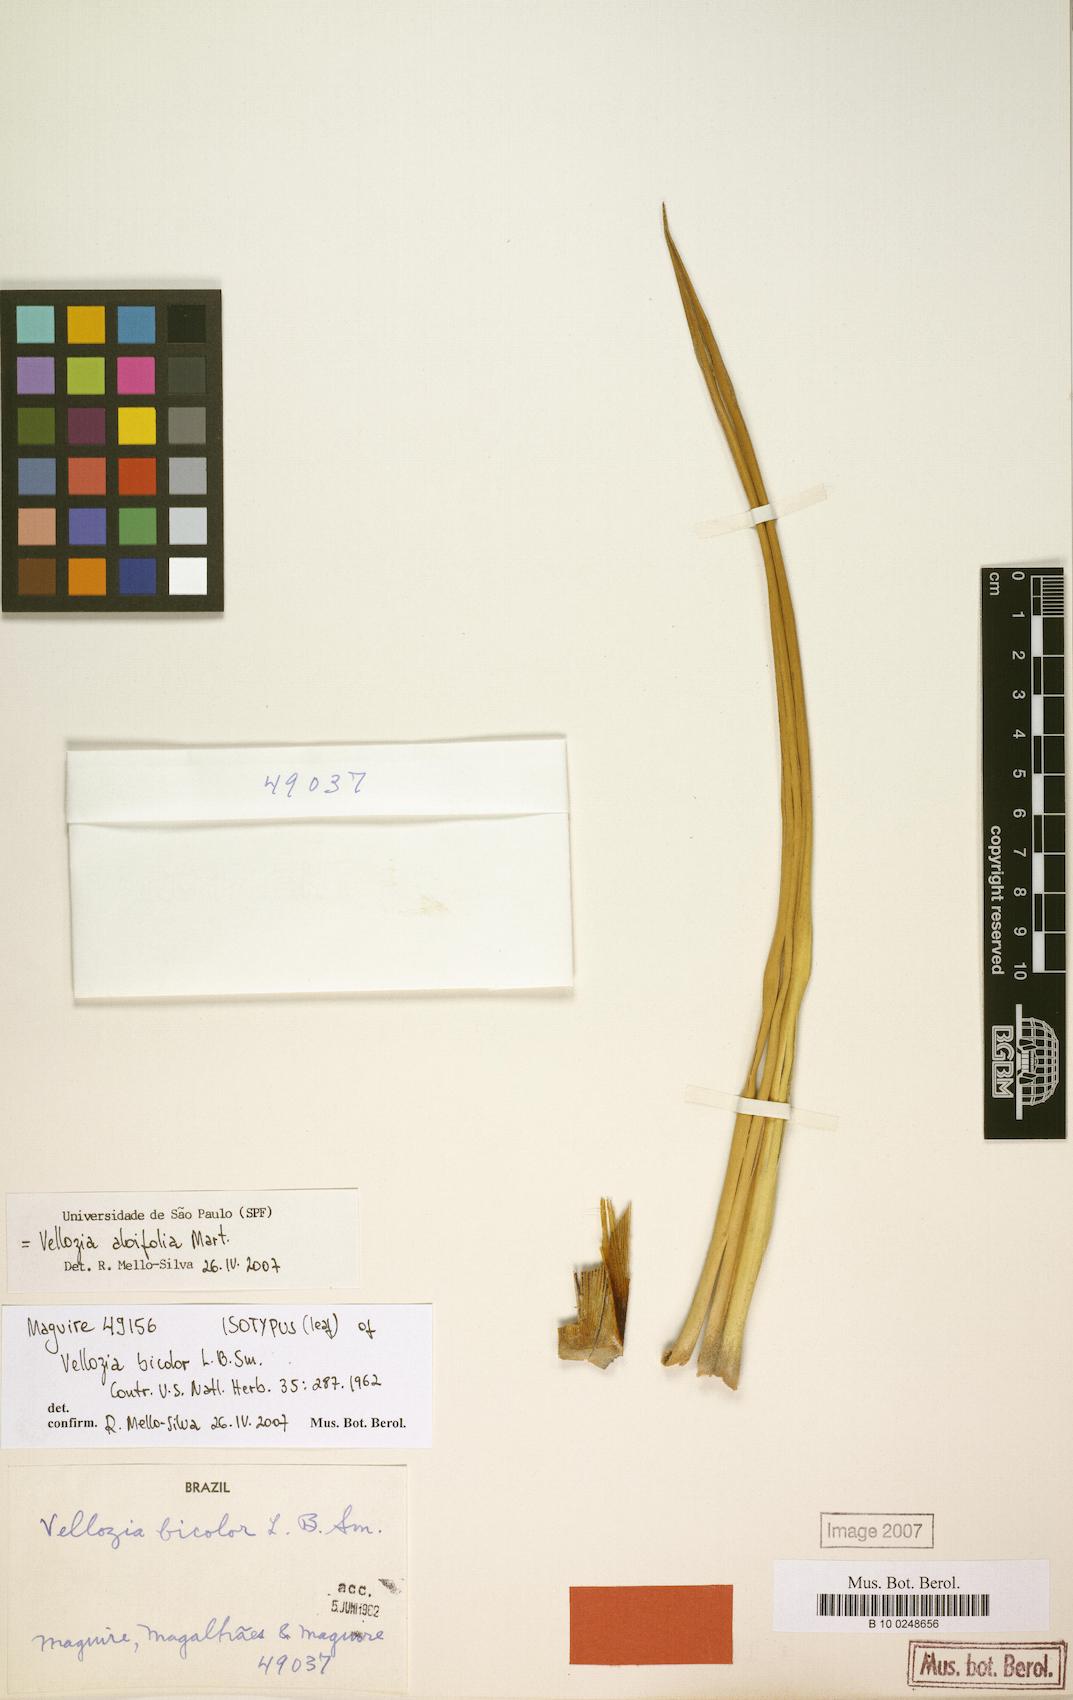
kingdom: Plantae
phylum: Tracheophyta
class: Liliopsida
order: Pandanales
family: Velloziaceae
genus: Vellozia
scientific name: Vellozia aloifolia
